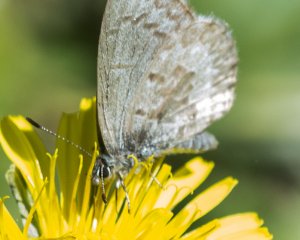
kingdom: Animalia
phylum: Arthropoda
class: Insecta
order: Lepidoptera
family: Lycaenidae
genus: Celastrina
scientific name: Celastrina lucia
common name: Northern Spring Azure
